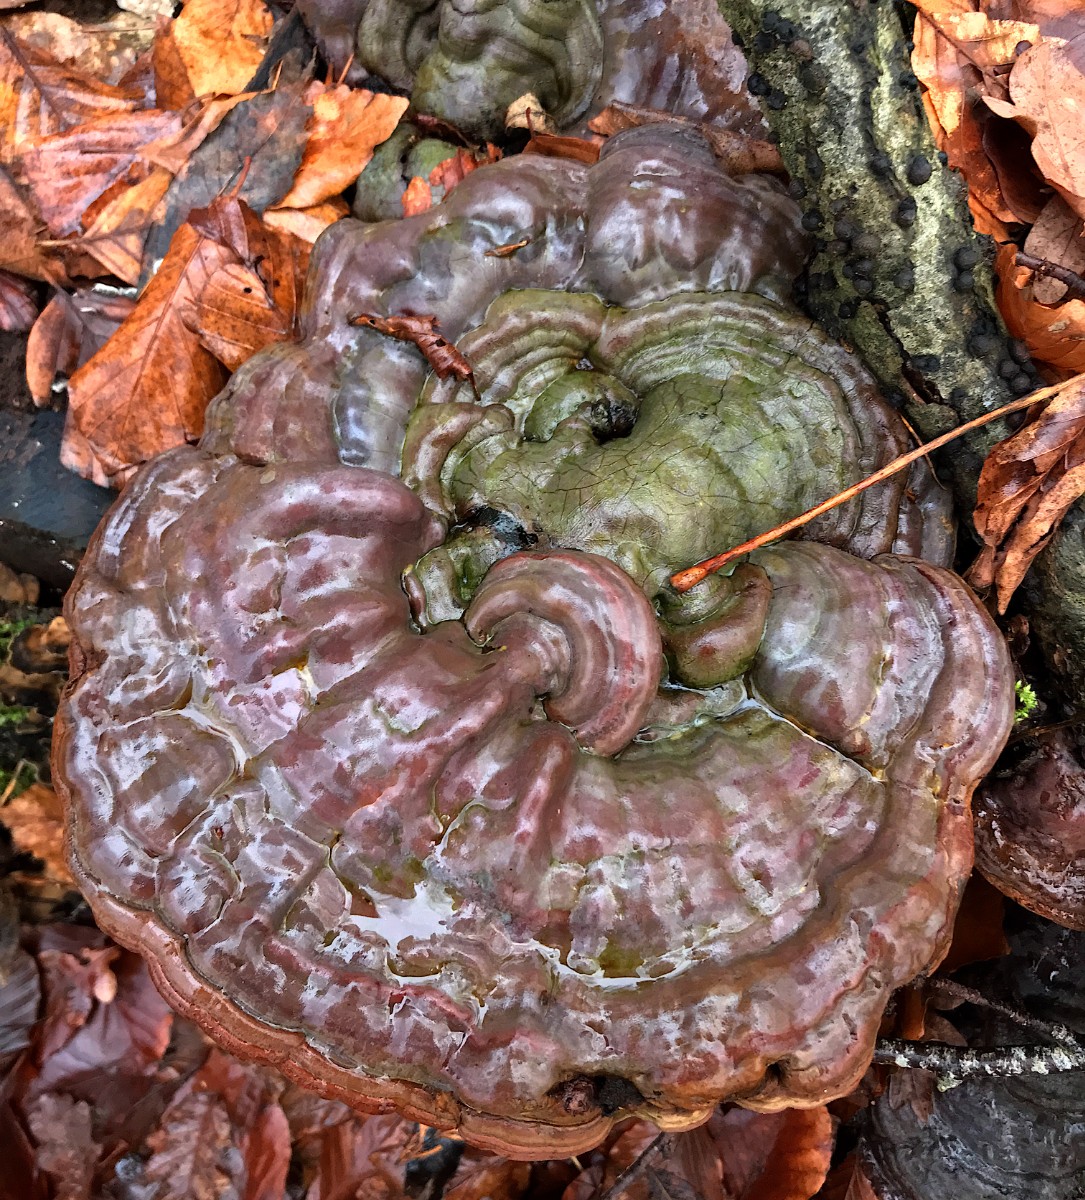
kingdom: Fungi
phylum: Basidiomycota
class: Agaricomycetes
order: Polyporales
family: Polyporaceae
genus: Ganoderma
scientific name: Ganoderma pfeifferi
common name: kobberrød lakporesvamp
